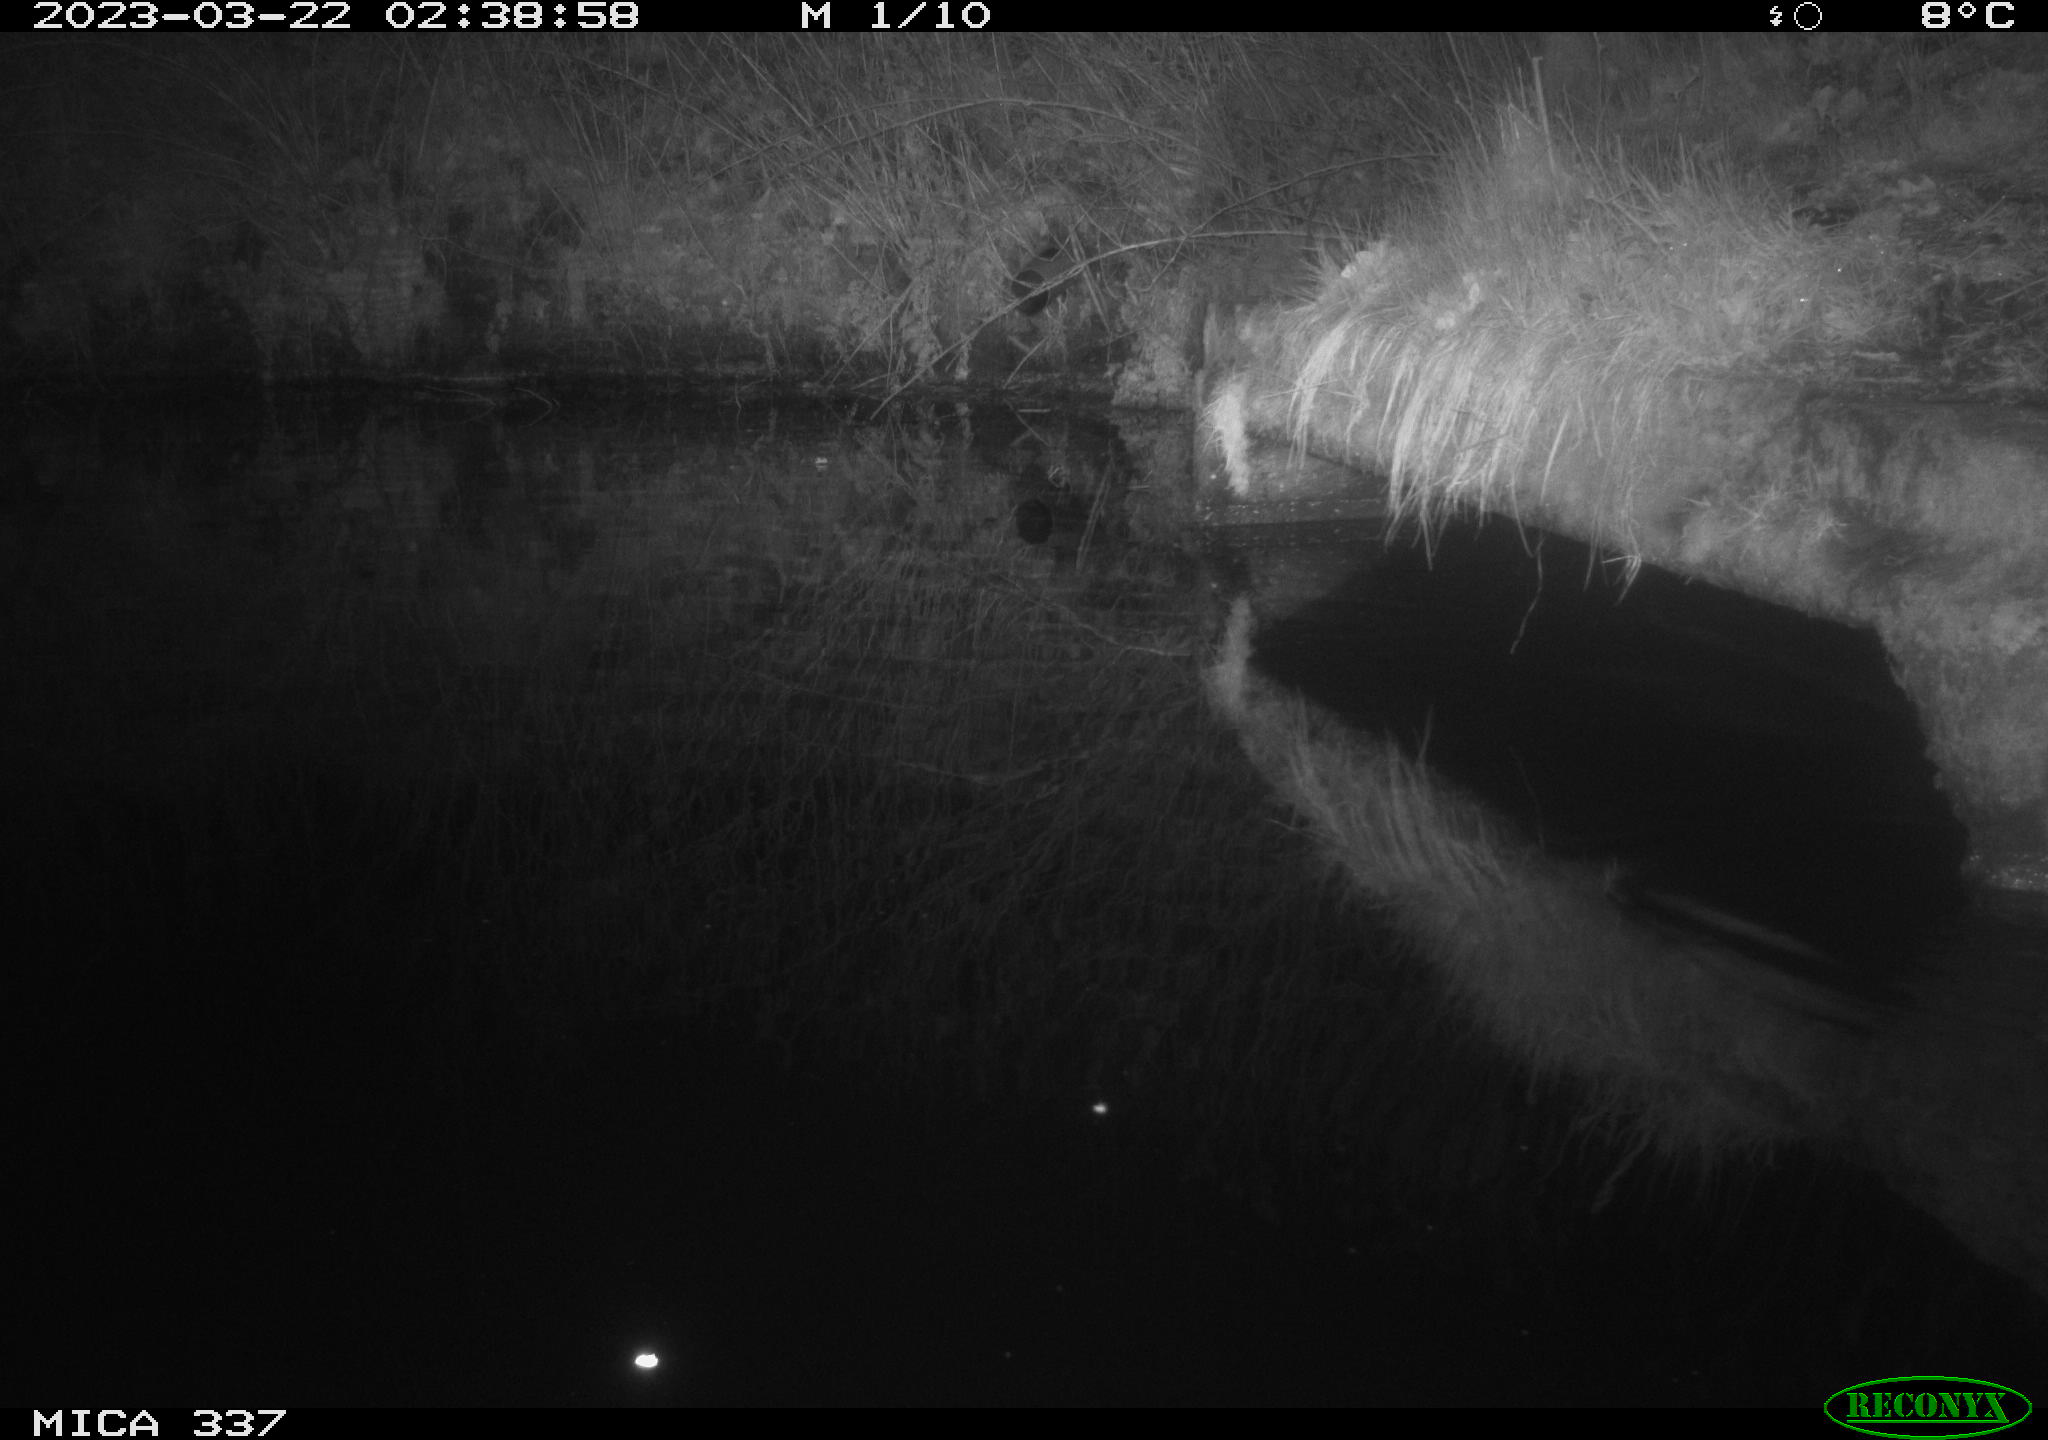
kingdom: Animalia
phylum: Chordata
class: Mammalia
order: Rodentia
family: Muridae
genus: Rattus
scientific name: Rattus norvegicus
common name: Brown rat
